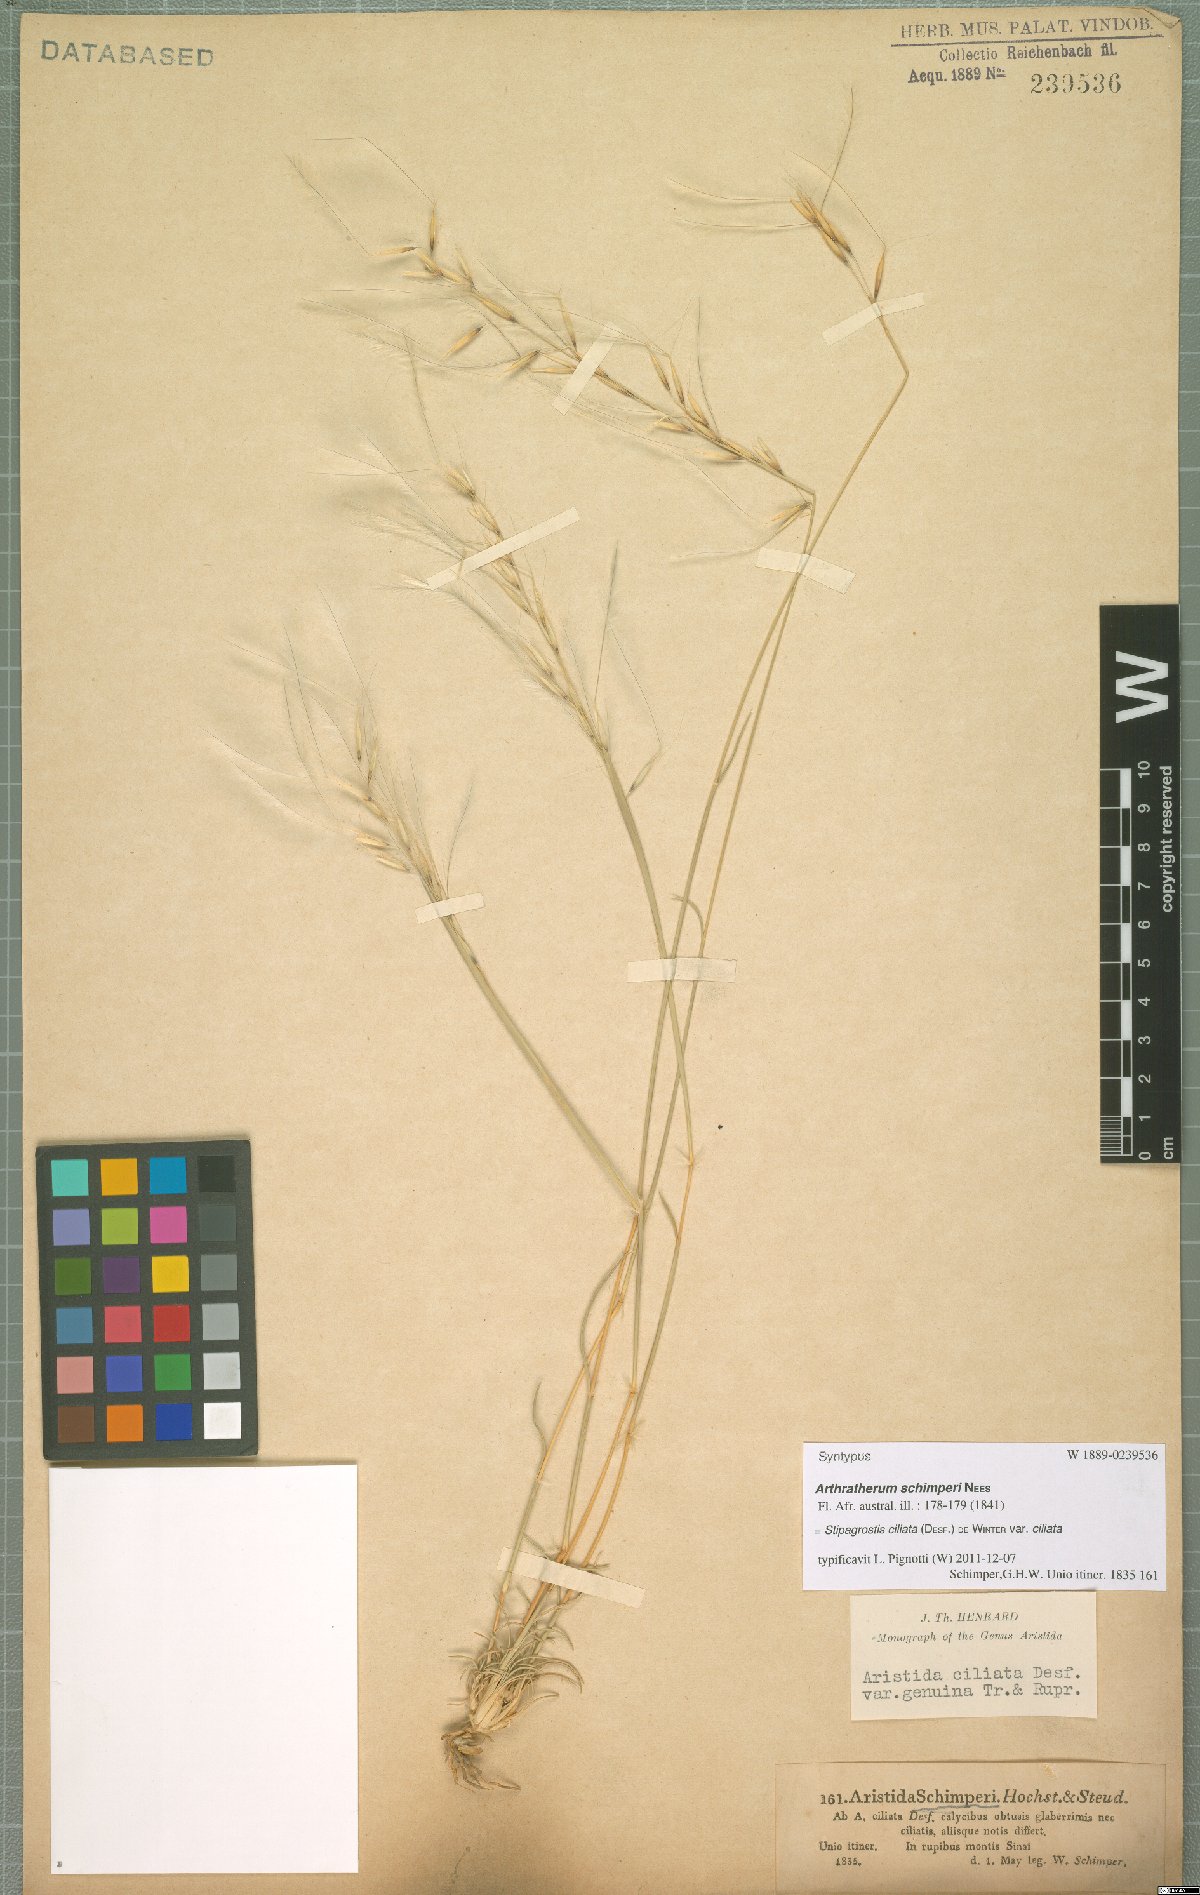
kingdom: Plantae
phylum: Tracheophyta
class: Liliopsida
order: Poales
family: Poaceae
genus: Stipagrostis
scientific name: Stipagrostis ciliata
